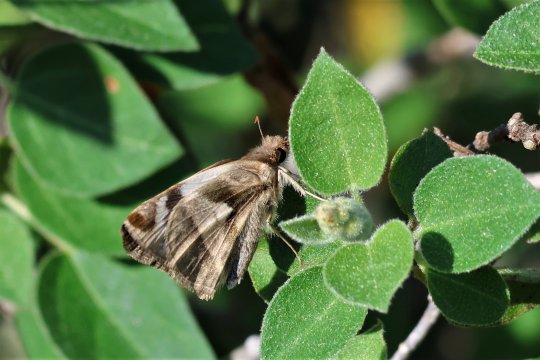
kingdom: Animalia
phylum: Arthropoda
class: Insecta
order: Lepidoptera
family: Hesperiidae
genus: Heliopetes
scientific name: Heliopetes laviana
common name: Laviana White-Skipper
